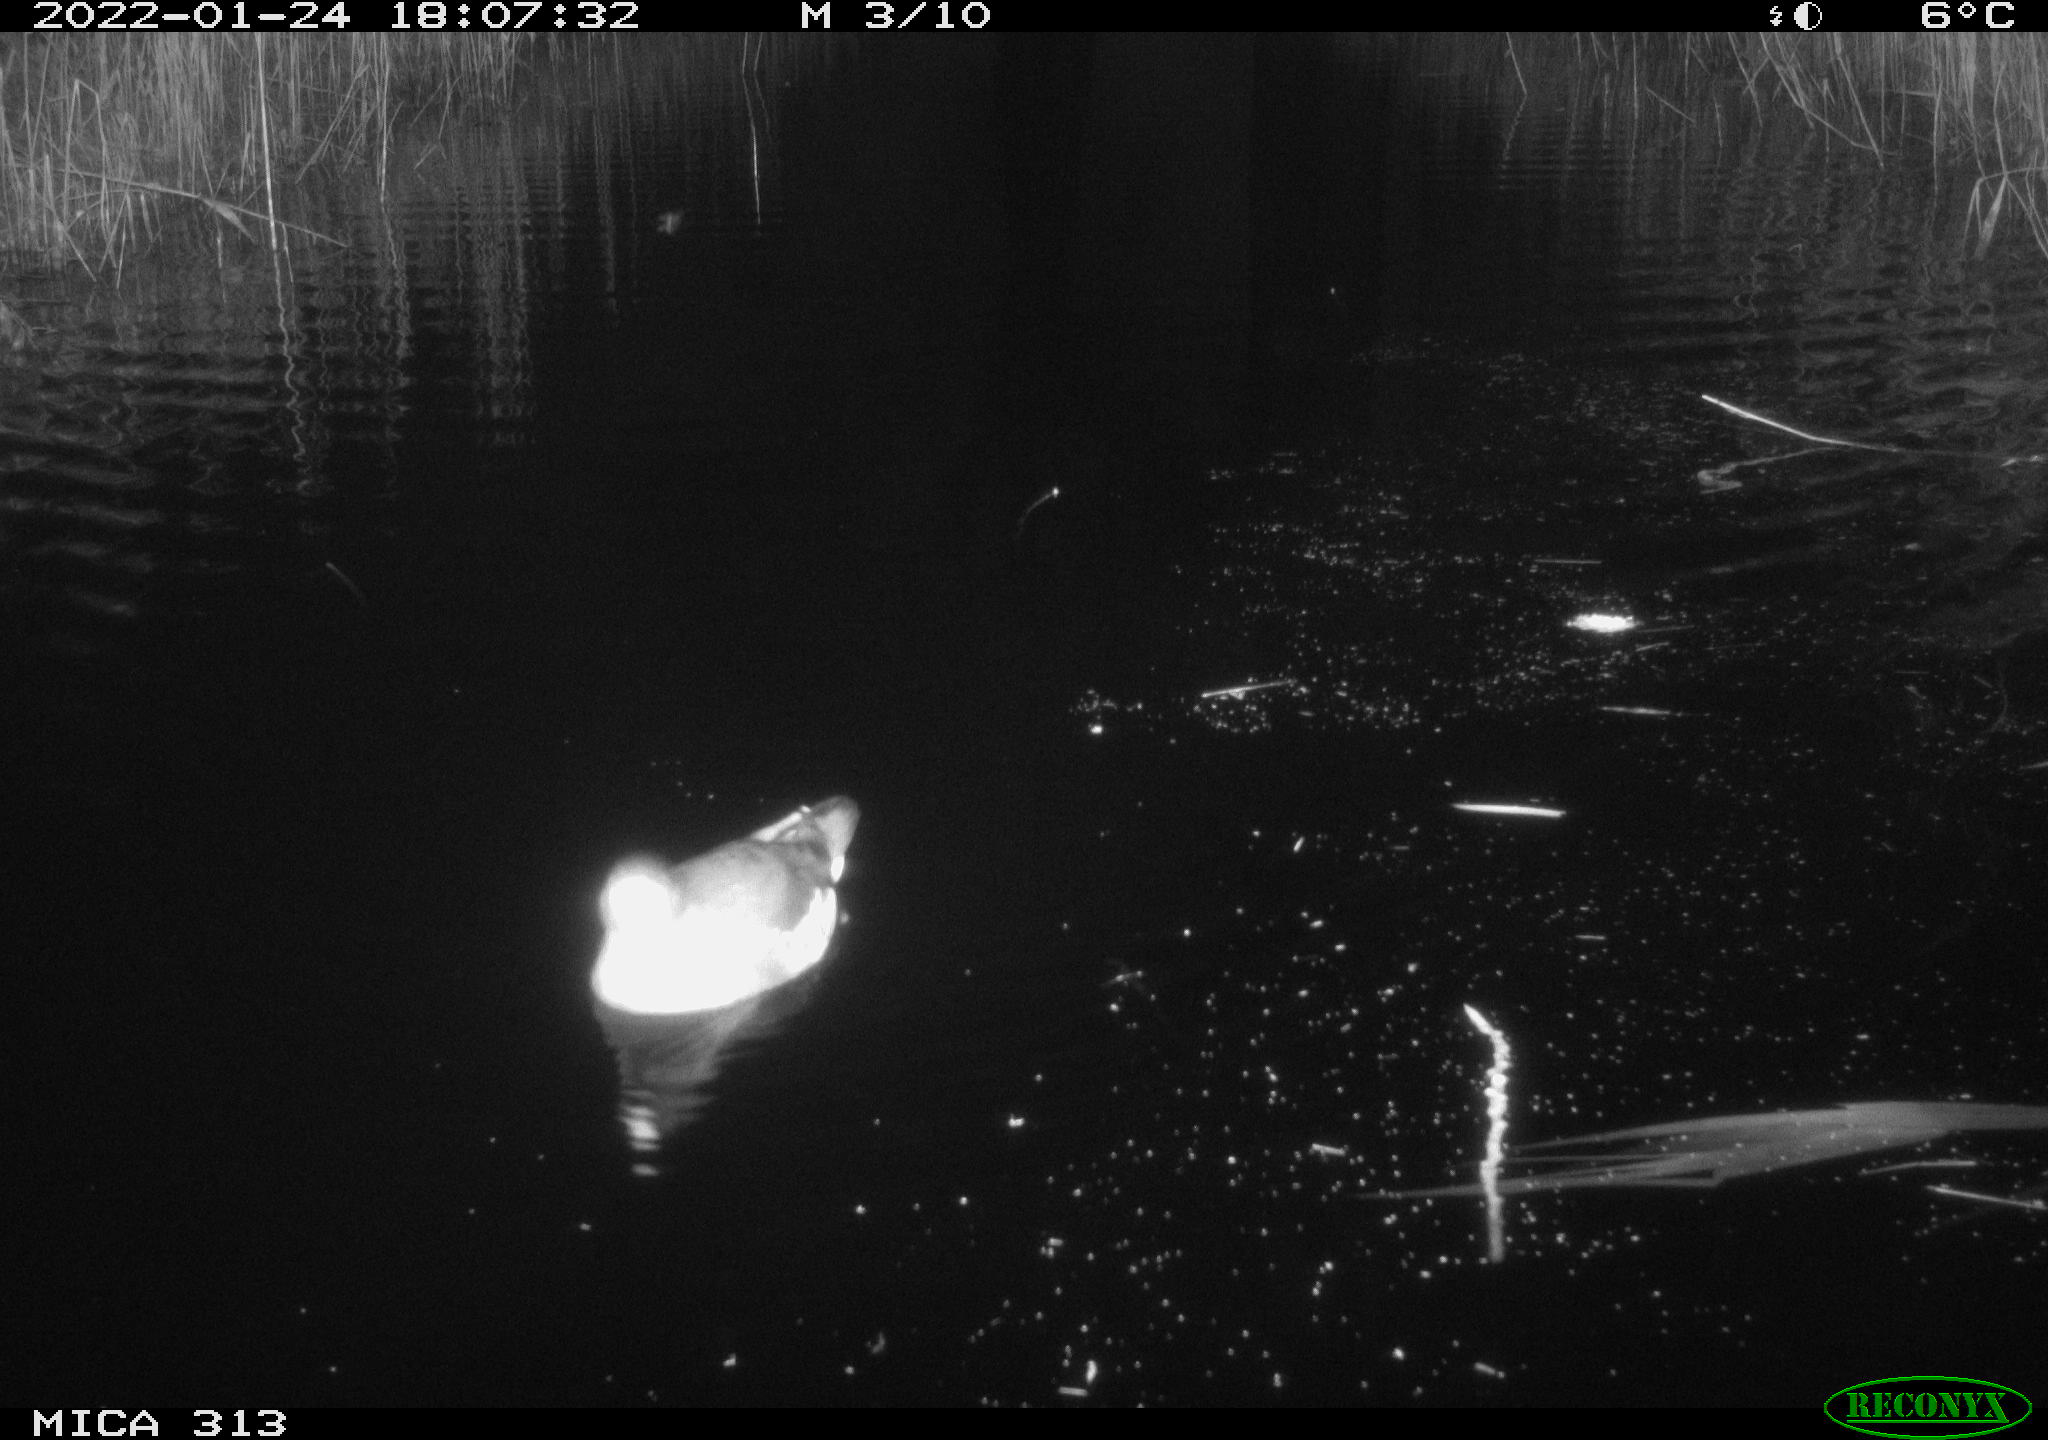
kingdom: Animalia
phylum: Chordata
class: Aves
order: Gruiformes
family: Rallidae
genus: Gallinula
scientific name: Gallinula chloropus
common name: Common moorhen
